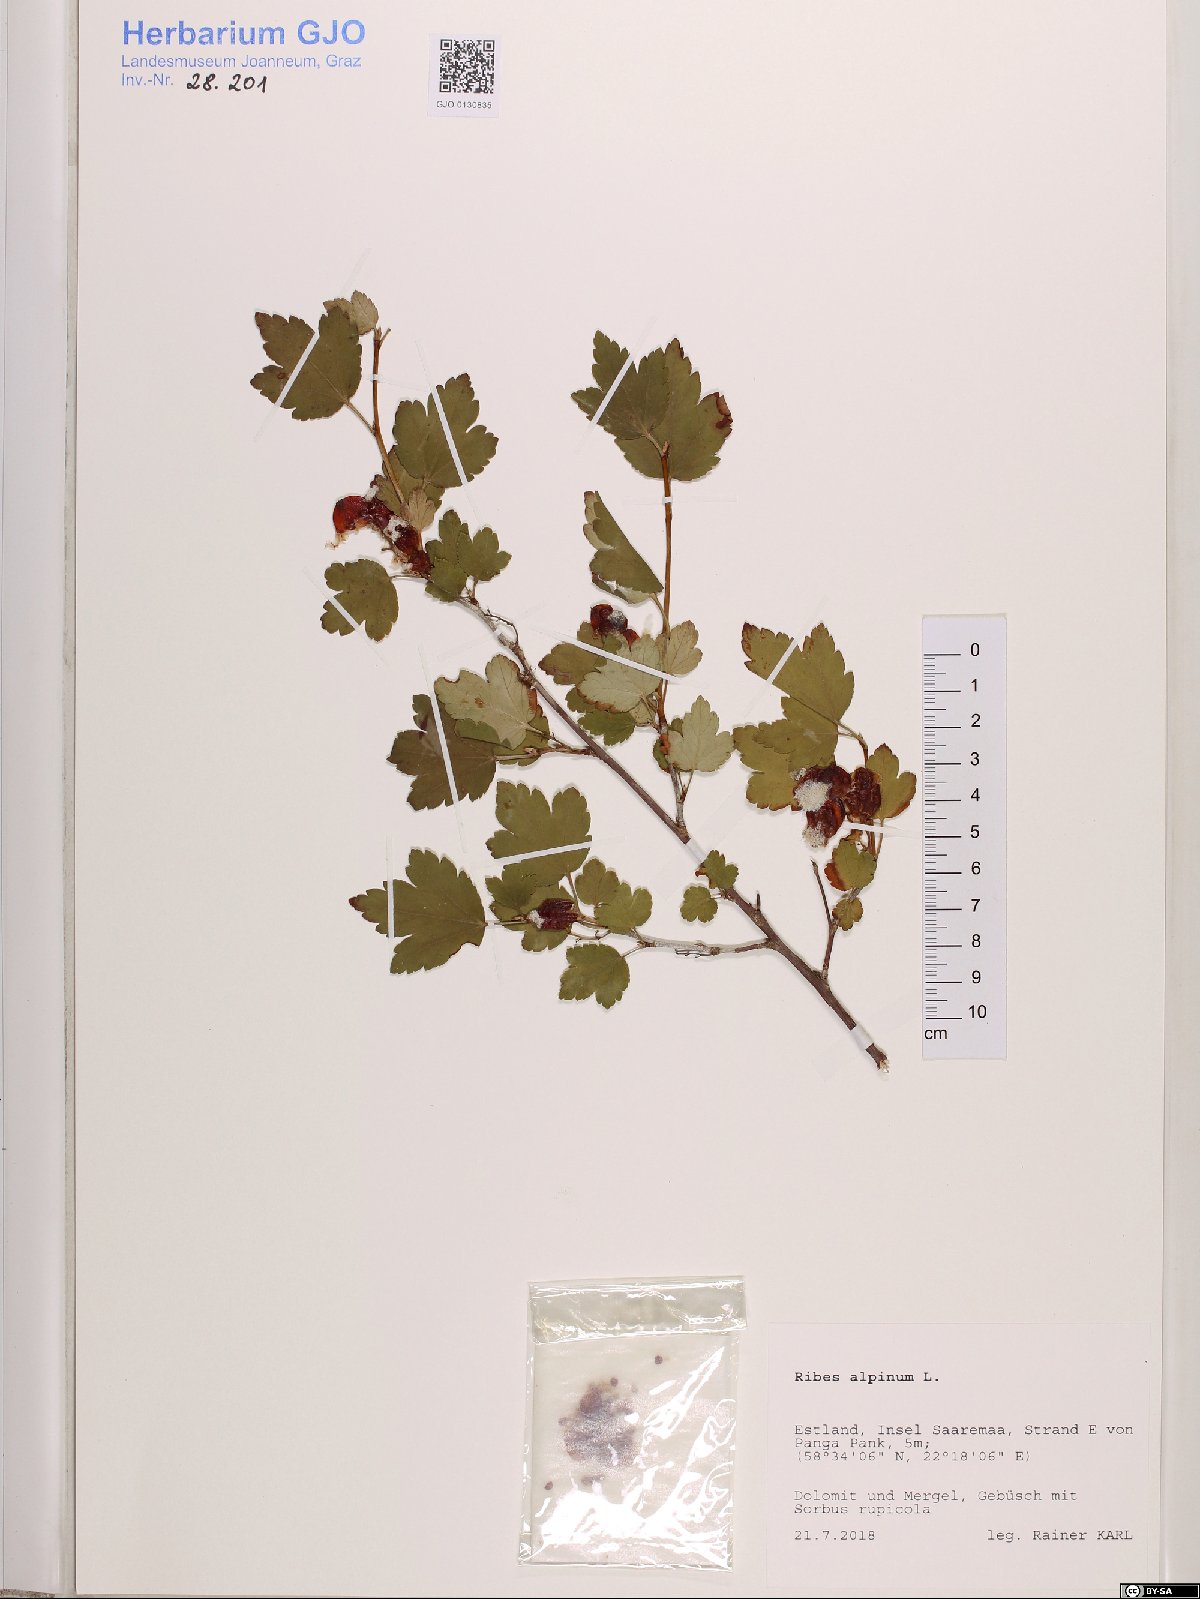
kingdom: Plantae
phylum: Tracheophyta
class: Magnoliopsida
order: Saxifragales
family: Grossulariaceae
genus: Ribes
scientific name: Ribes alpinum
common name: Alpine currant
